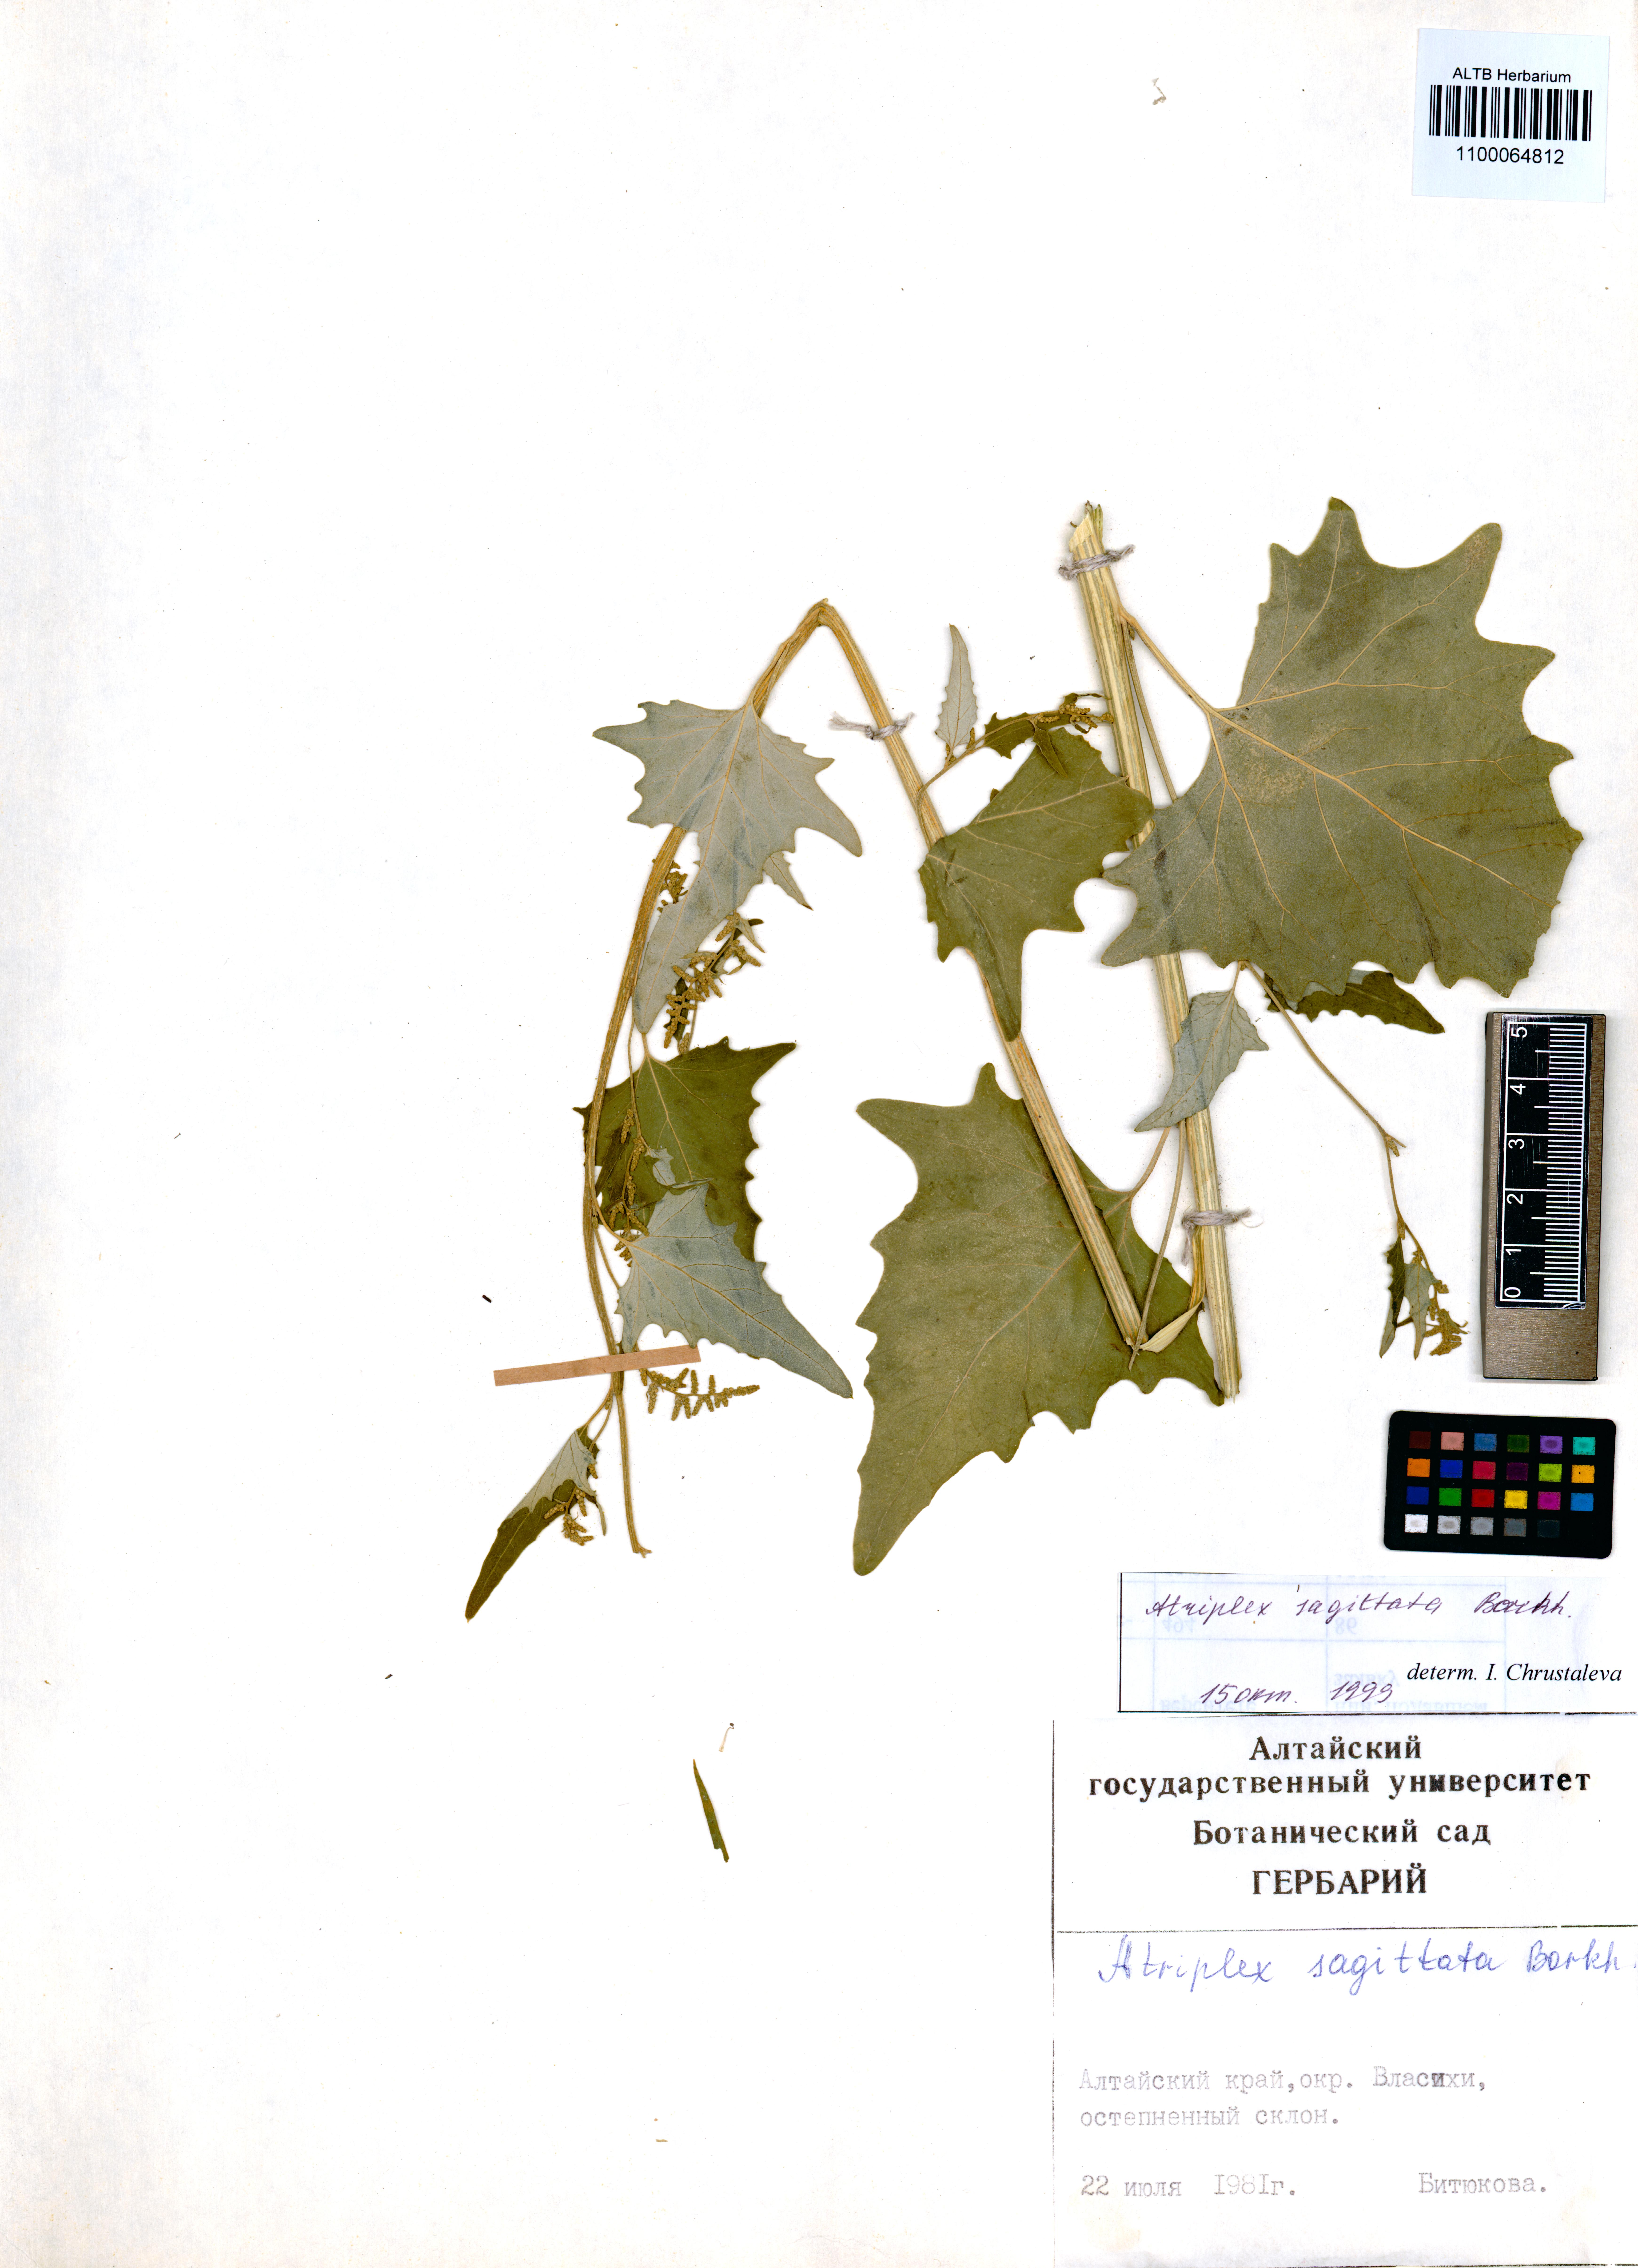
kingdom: Plantae
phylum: Tracheophyta
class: Magnoliopsida
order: Caryophyllales
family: Amaranthaceae
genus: Atriplex
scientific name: Atriplex sagittata
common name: Purple orache
